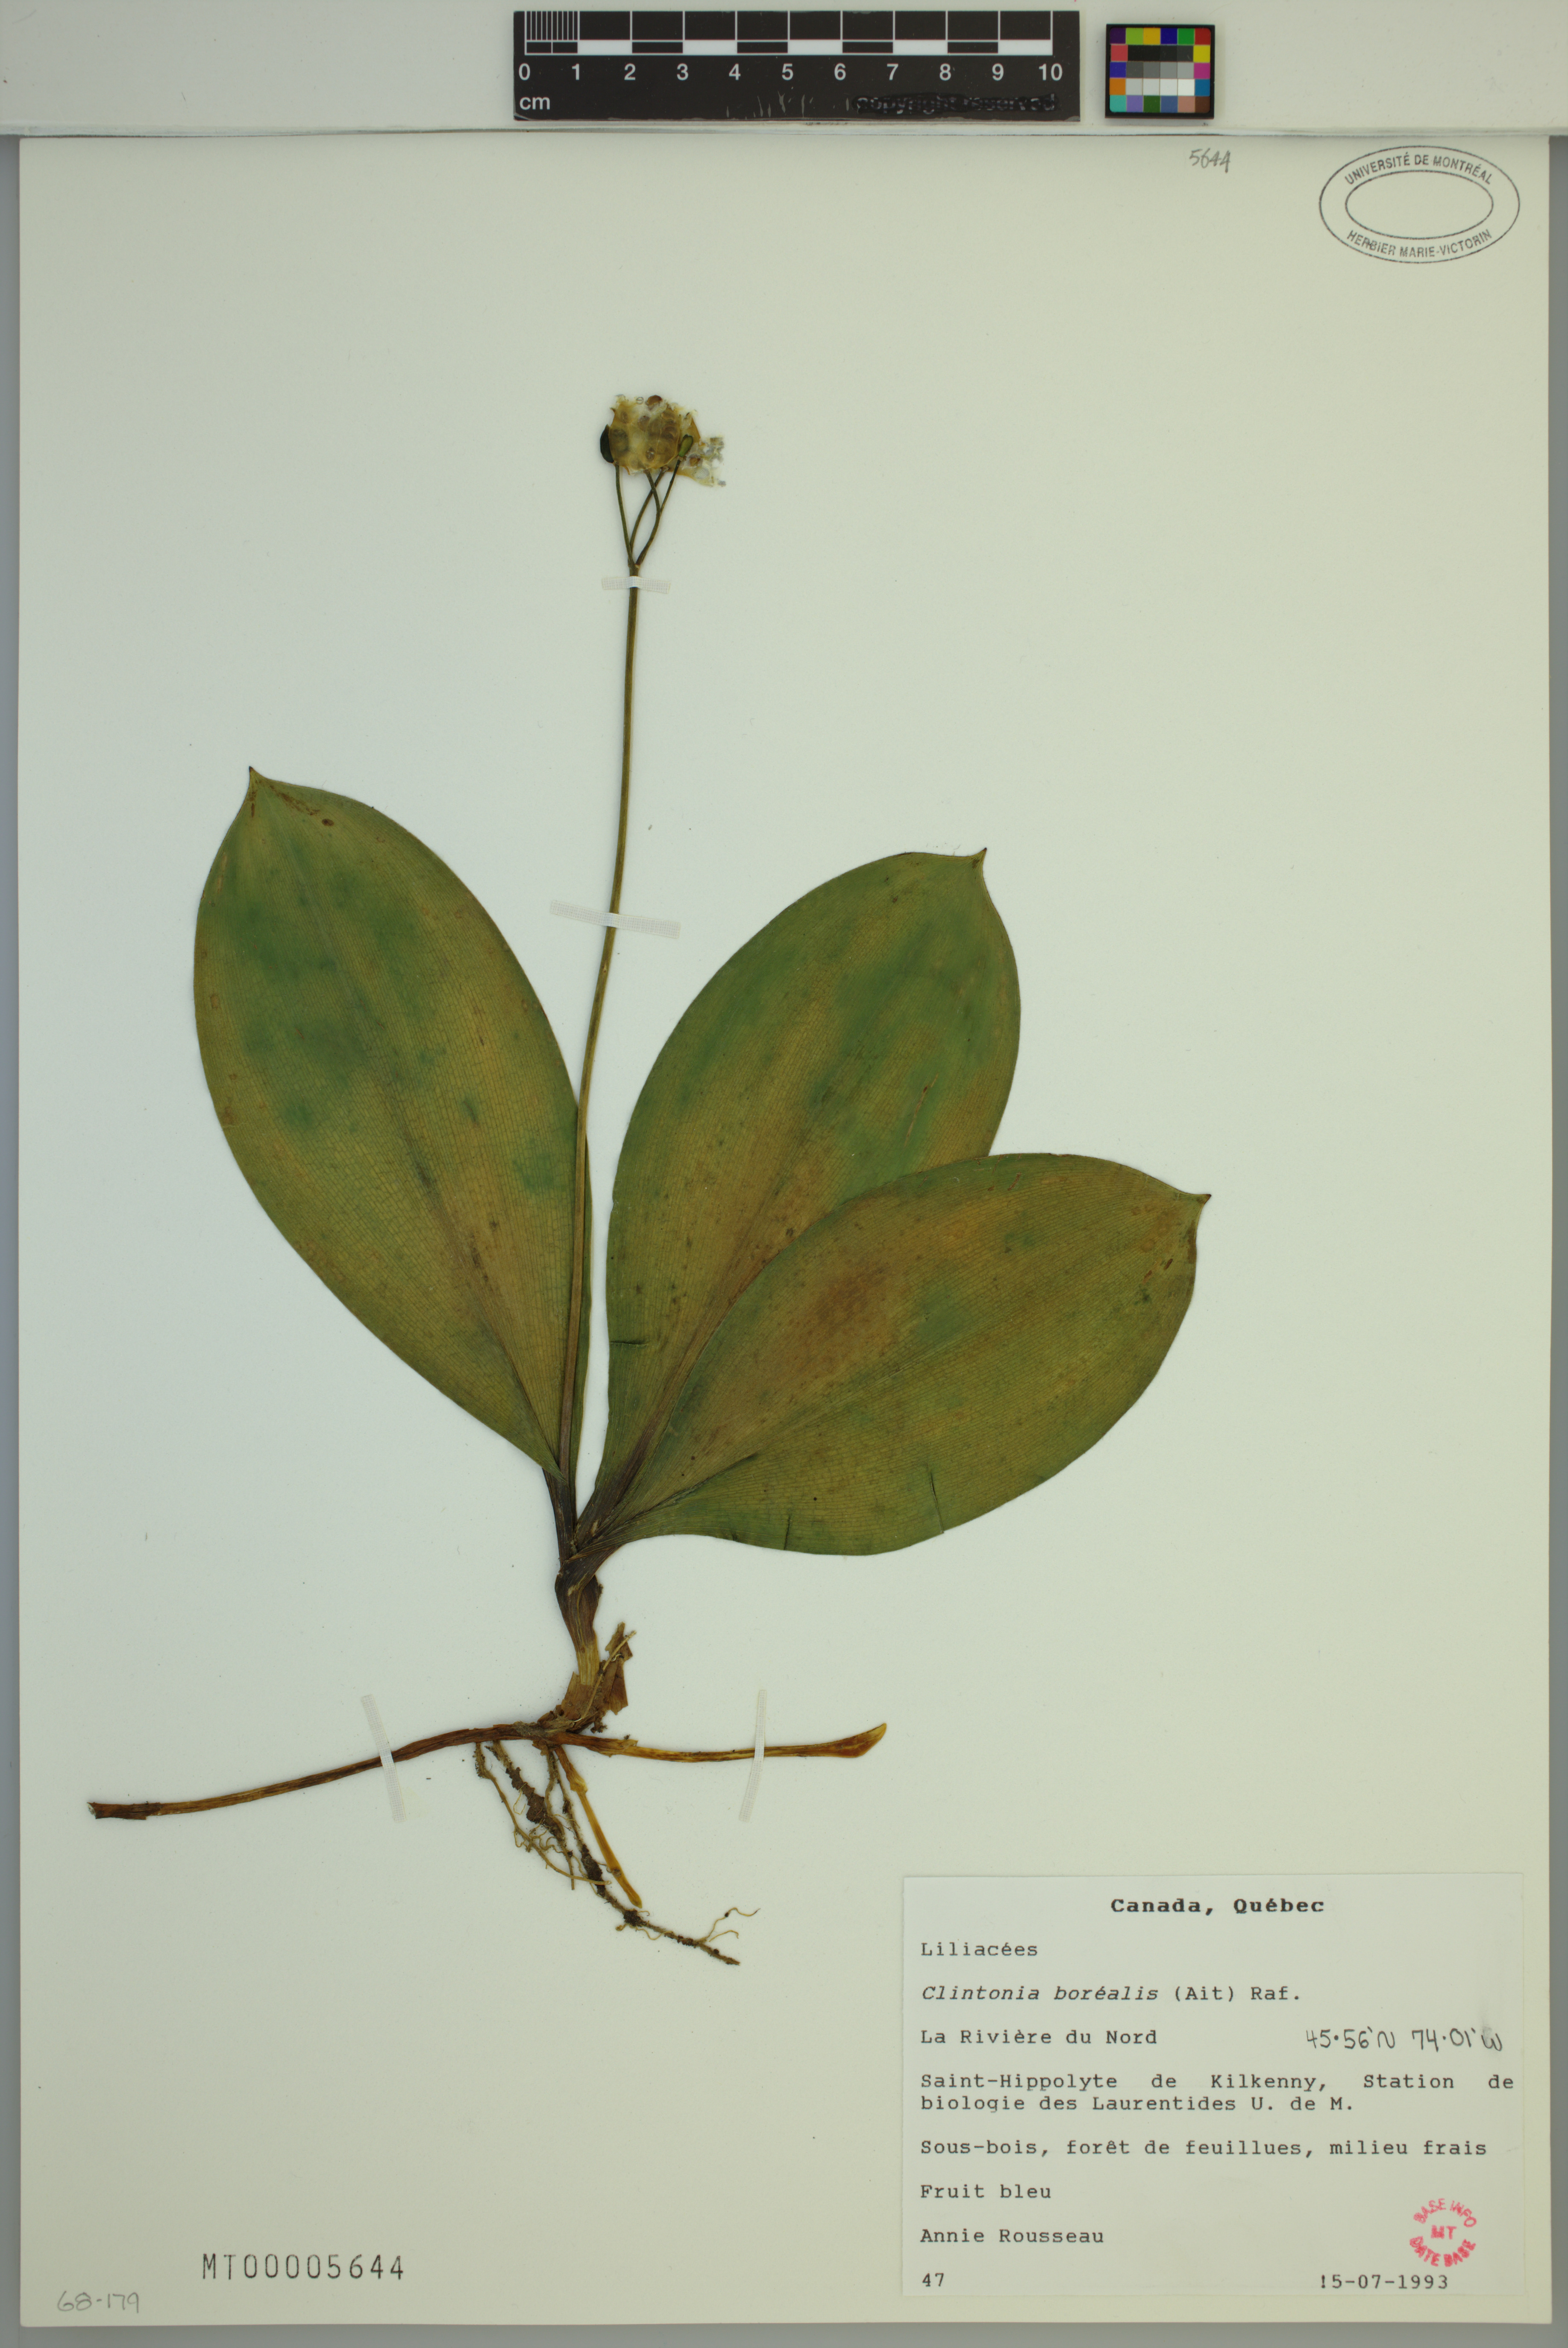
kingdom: Plantae
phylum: Tracheophyta
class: Liliopsida
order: Liliales
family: Liliaceae
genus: Clintonia
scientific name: Clintonia borealis
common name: Yellow clintonia
